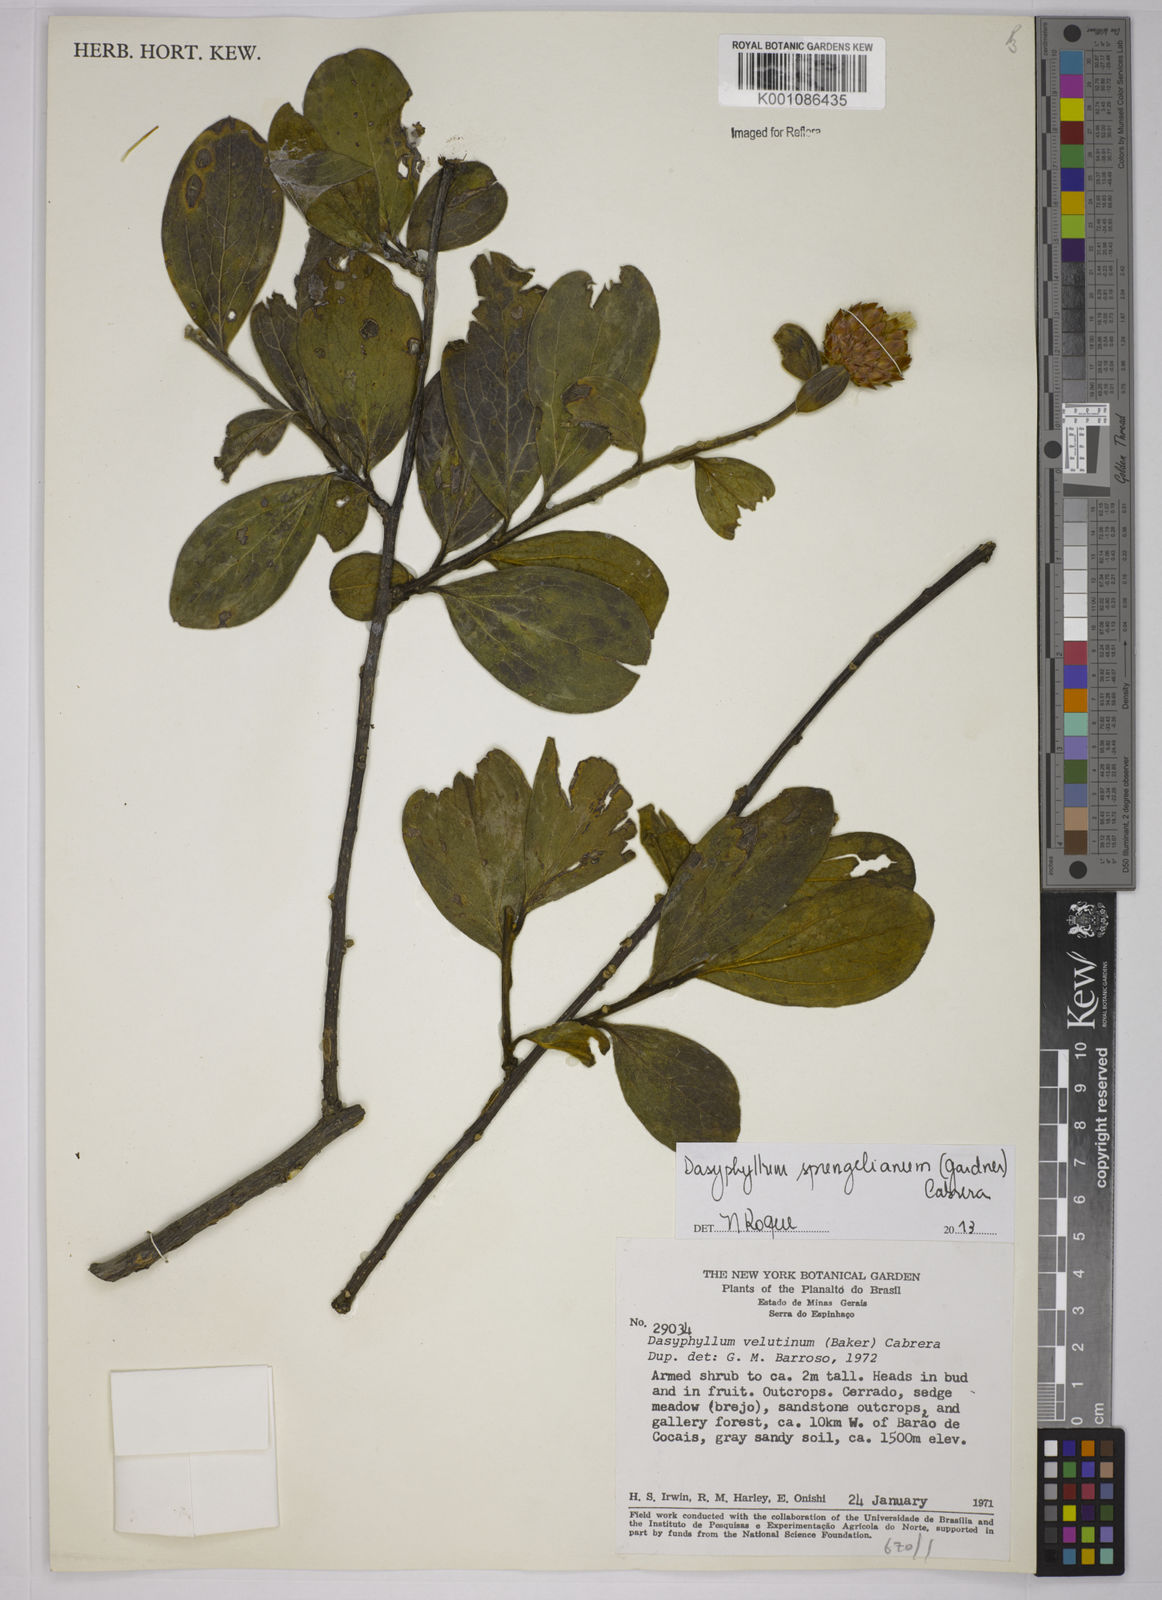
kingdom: Plantae
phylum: Tracheophyta
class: Magnoliopsida
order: Asterales
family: Asteraceae
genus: Dasyphyllum
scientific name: Dasyphyllum velutinum
